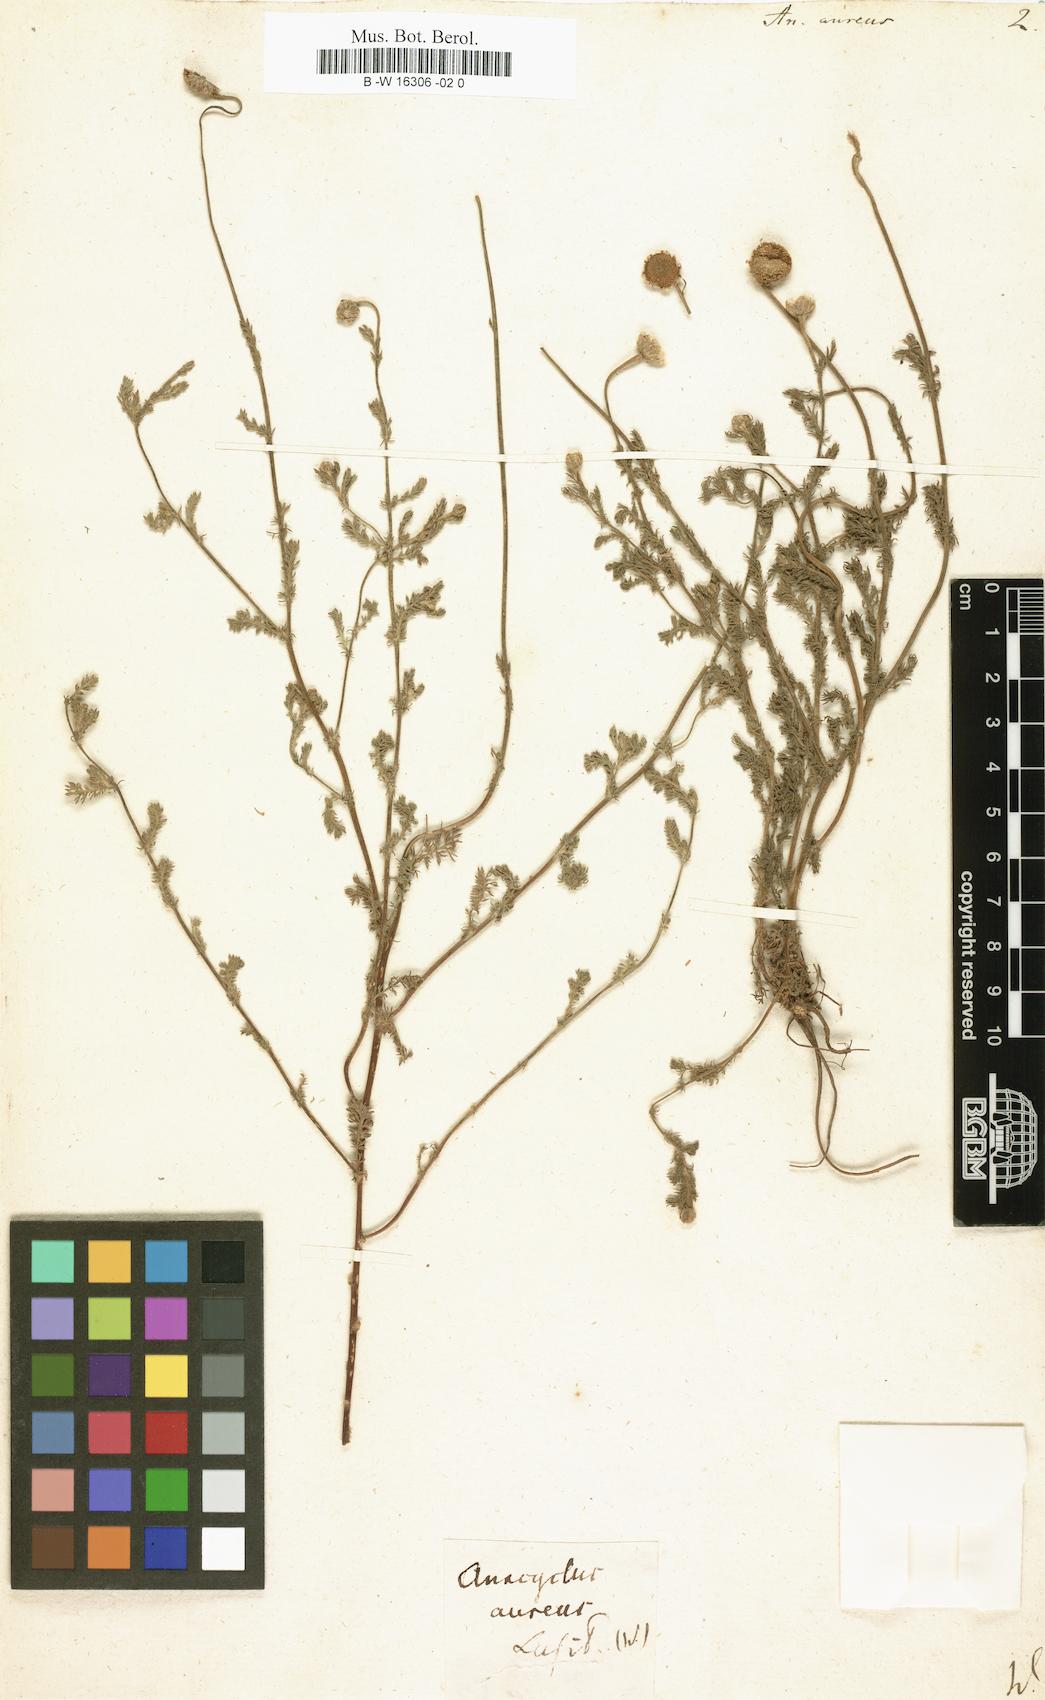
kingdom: Plantae
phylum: Tracheophyta
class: Magnoliopsida
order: Asterales
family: Asteraceae
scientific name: Asteraceae
